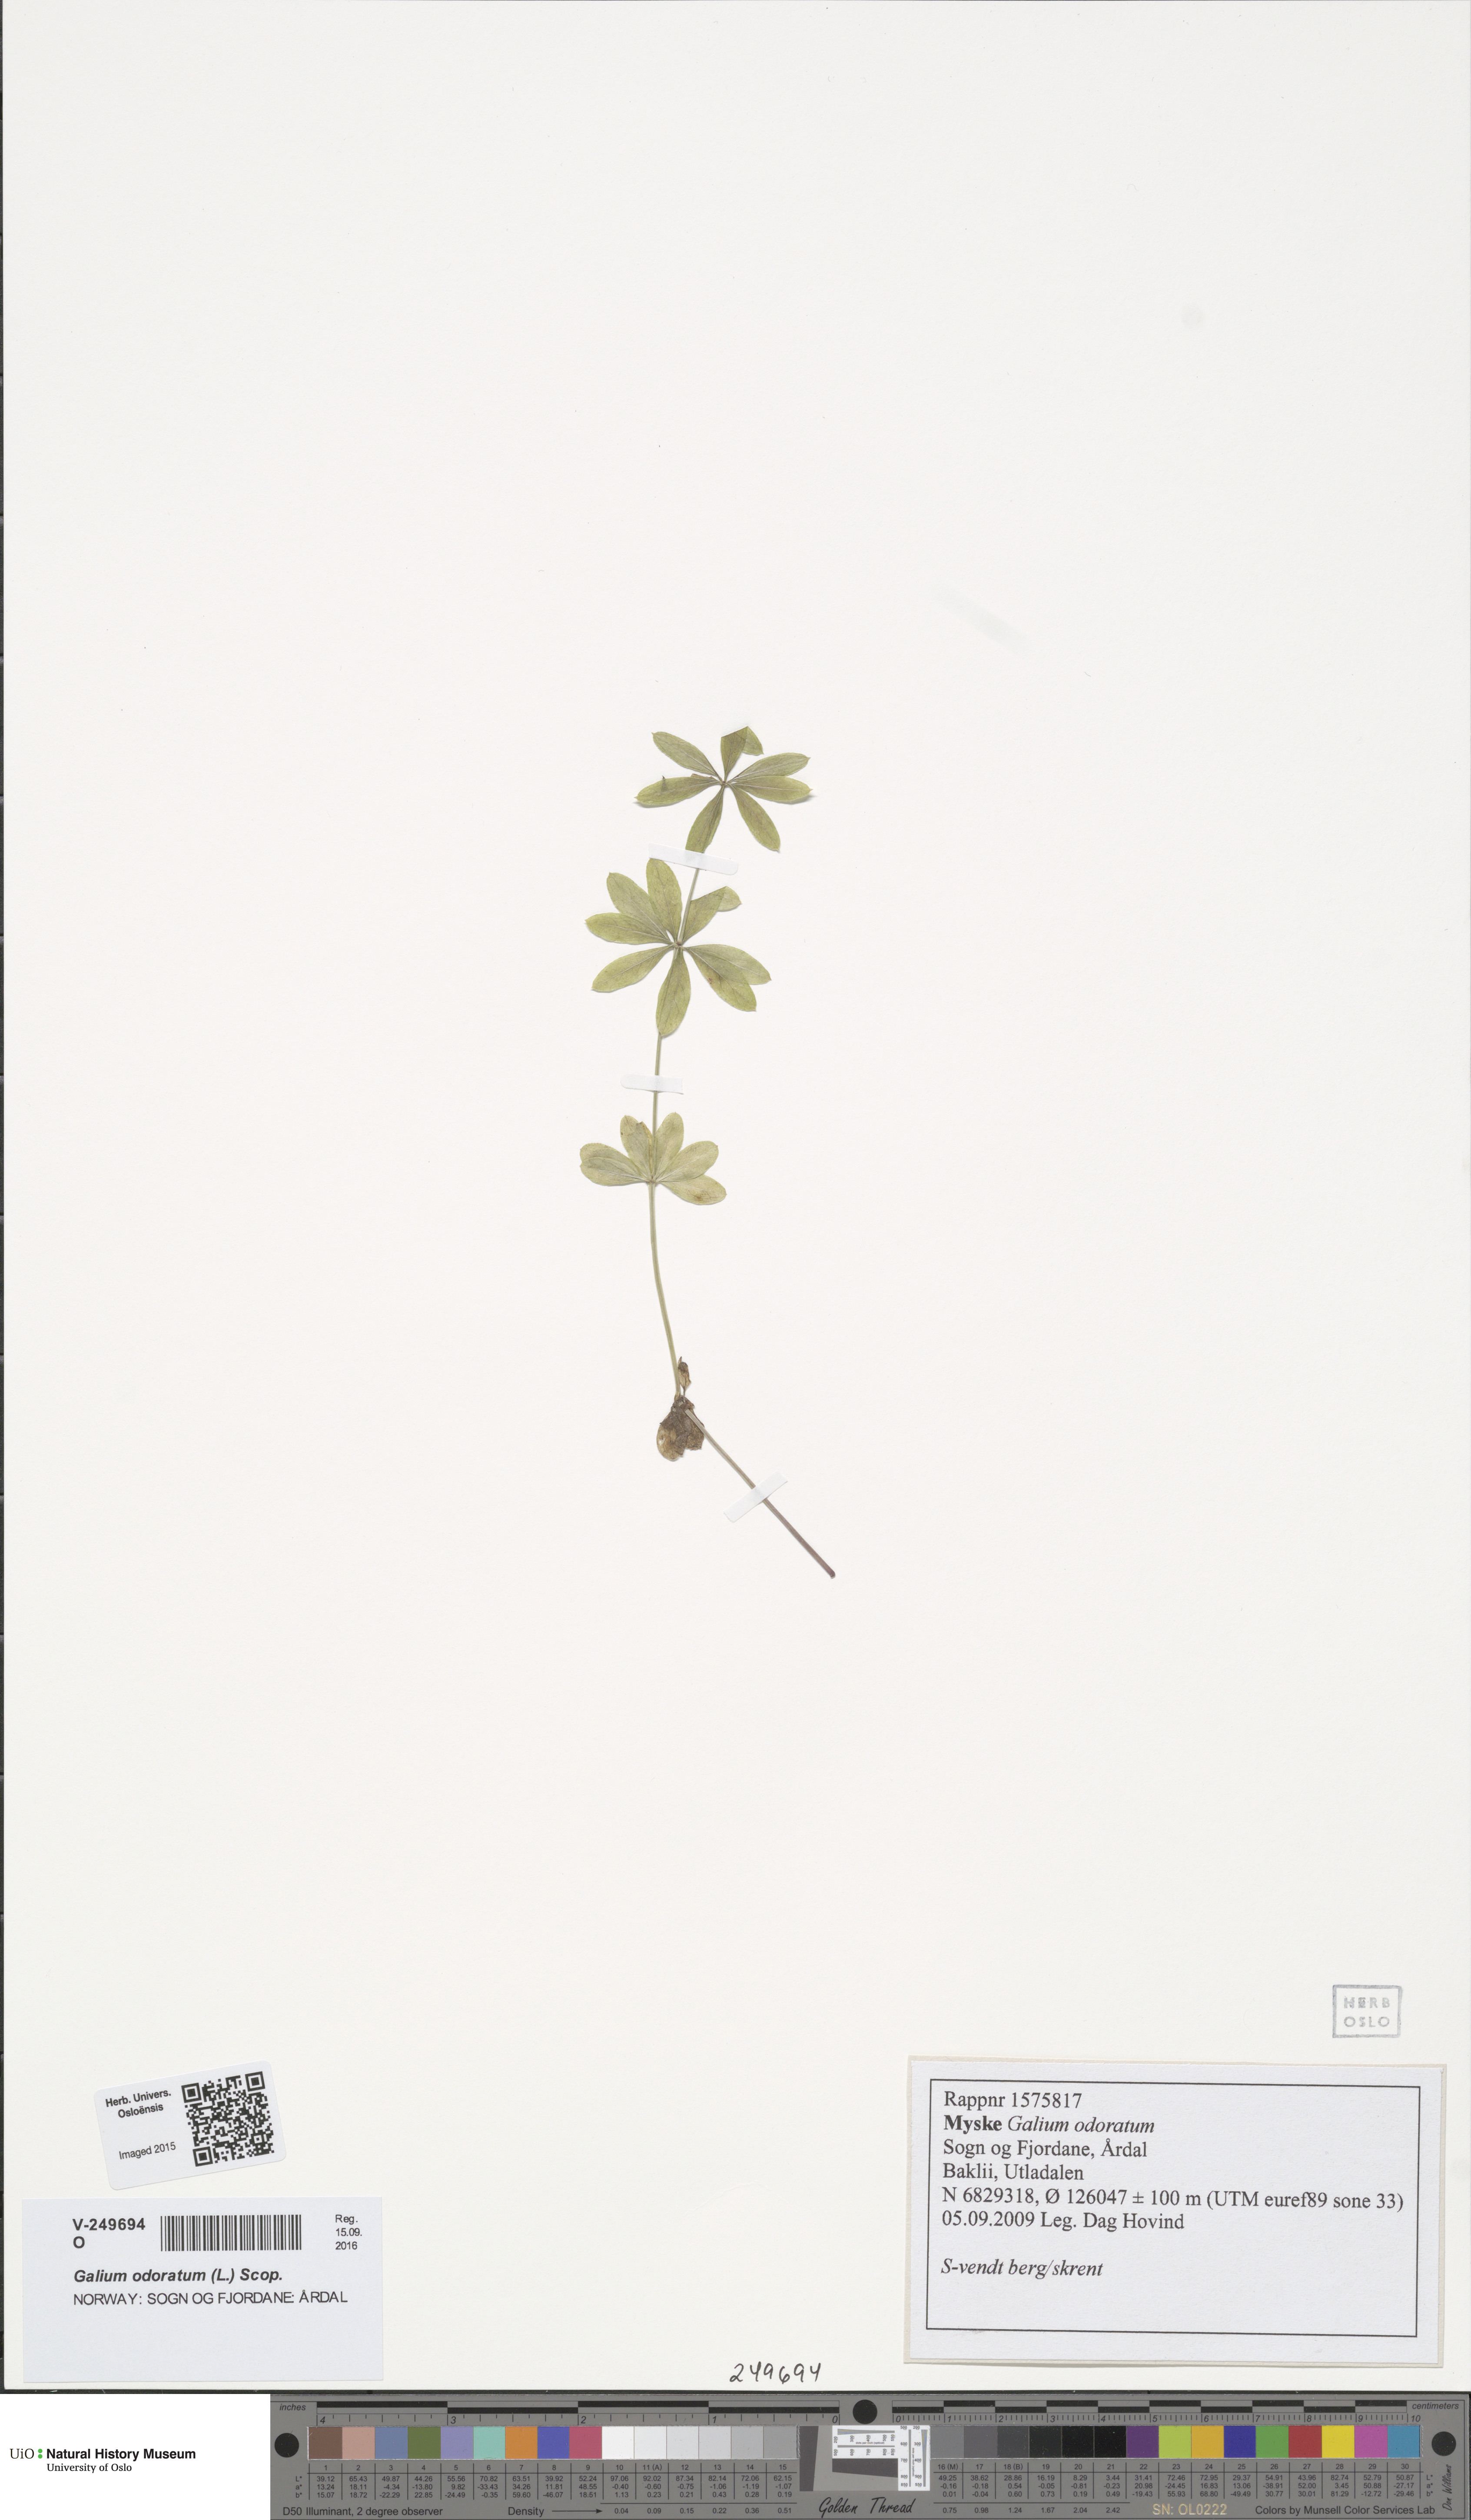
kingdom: Plantae
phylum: Tracheophyta
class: Magnoliopsida
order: Gentianales
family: Rubiaceae
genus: Galium
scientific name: Galium odoratum
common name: Sweet woodruff
